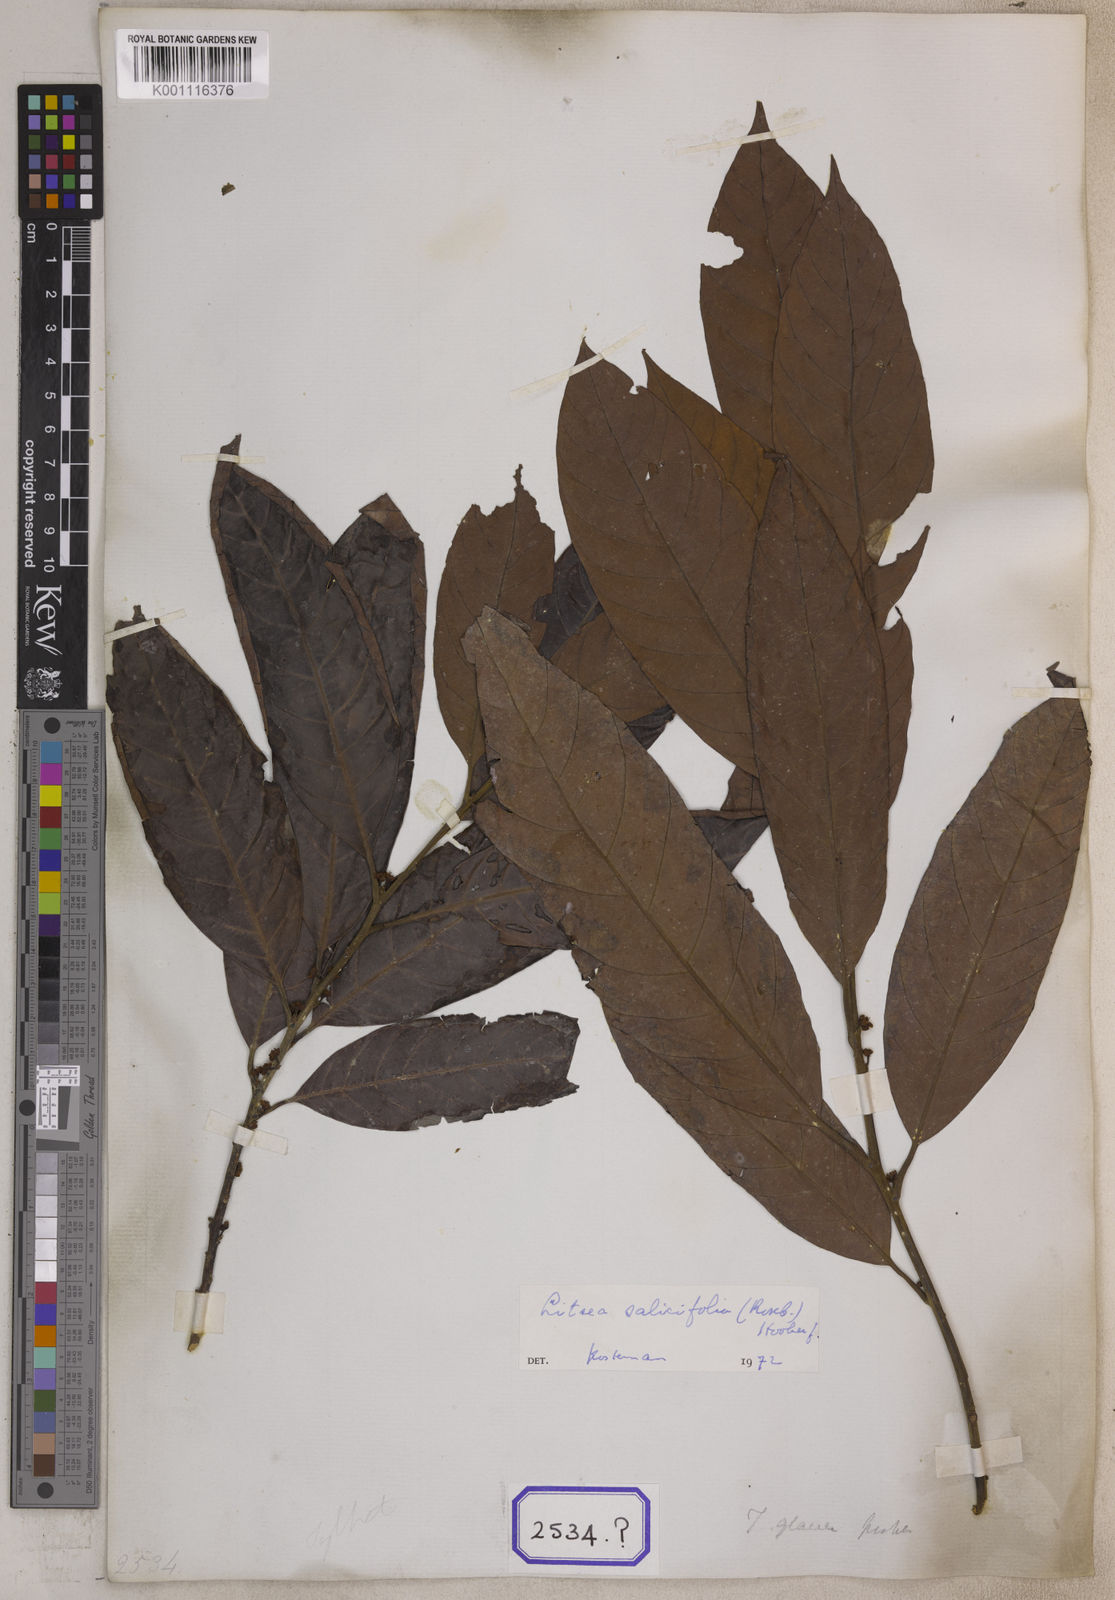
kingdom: Plantae
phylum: Tracheophyta
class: Magnoliopsida
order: Laurales
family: Lauraceae
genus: Litsea
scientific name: Litsea
